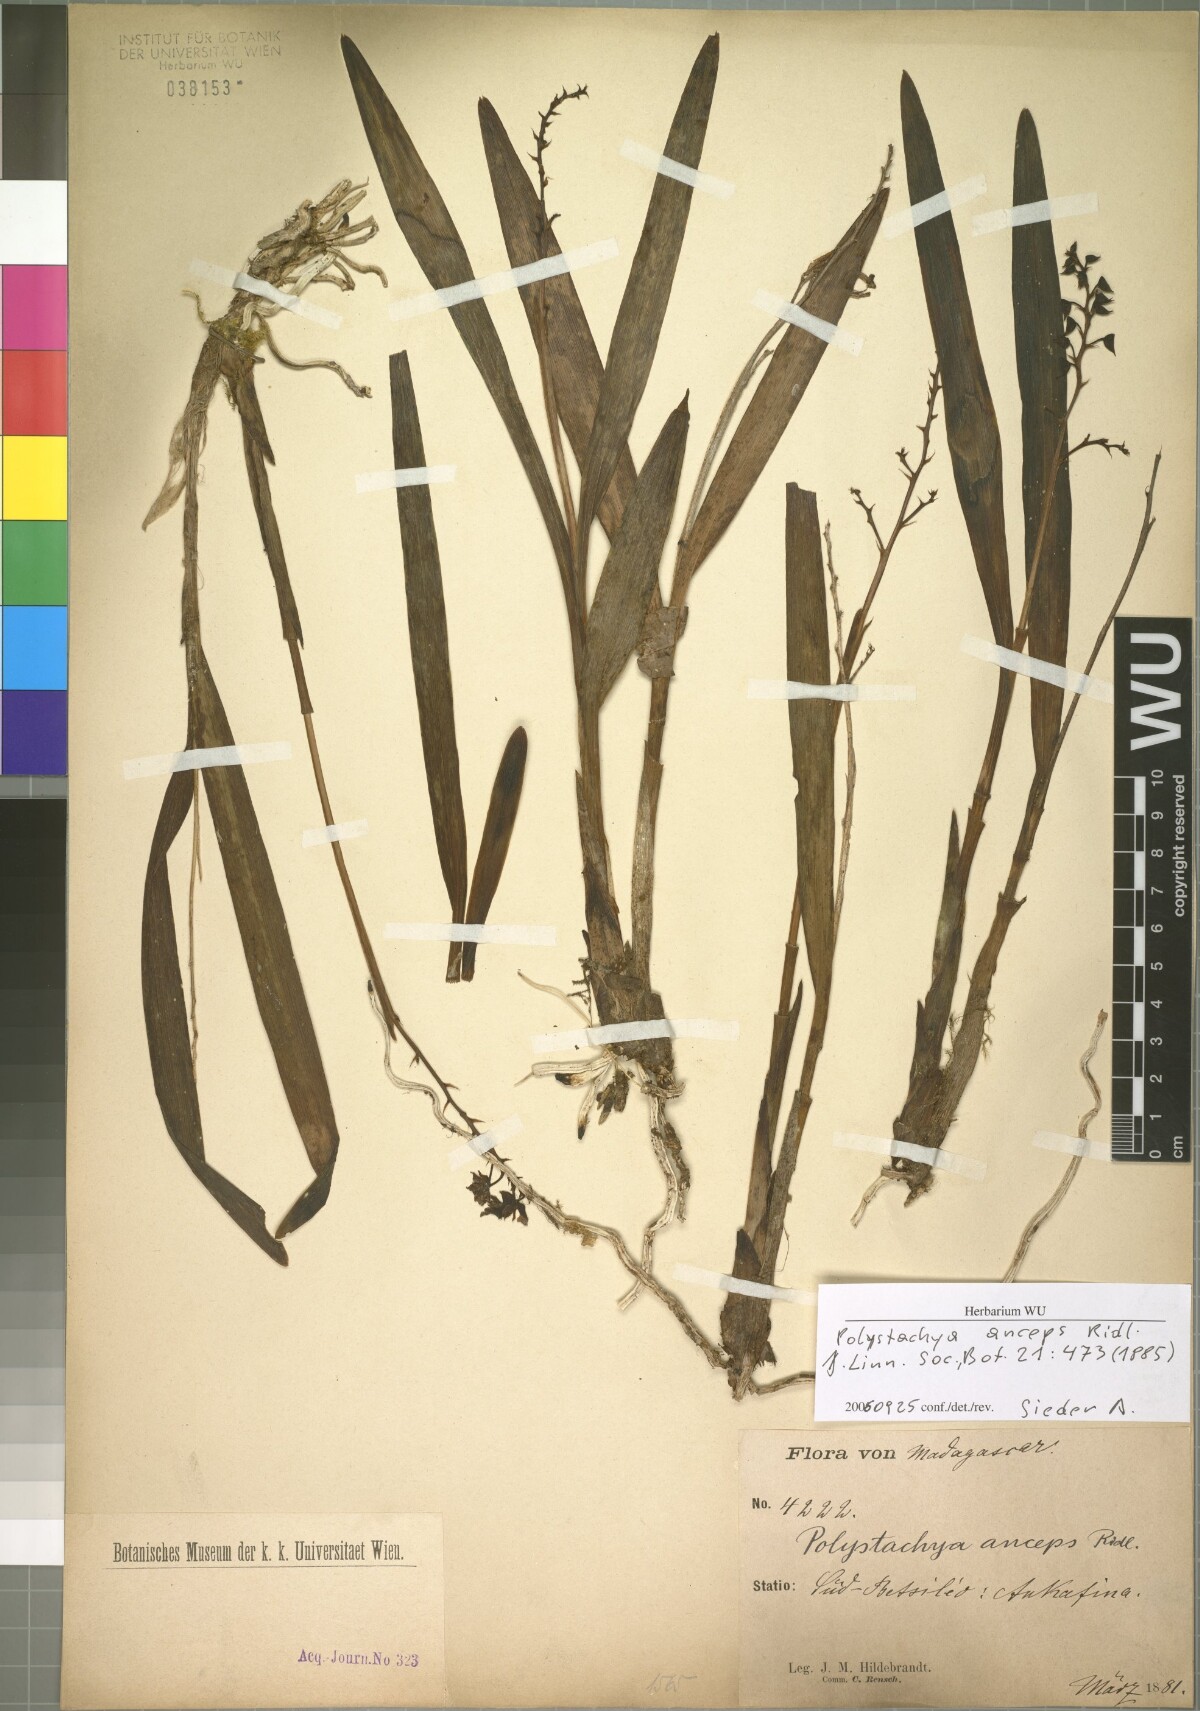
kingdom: Plantae
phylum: Tracheophyta
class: Liliopsida
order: Asparagales
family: Orchidaceae
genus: Polystachya
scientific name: Polystachya anceps
